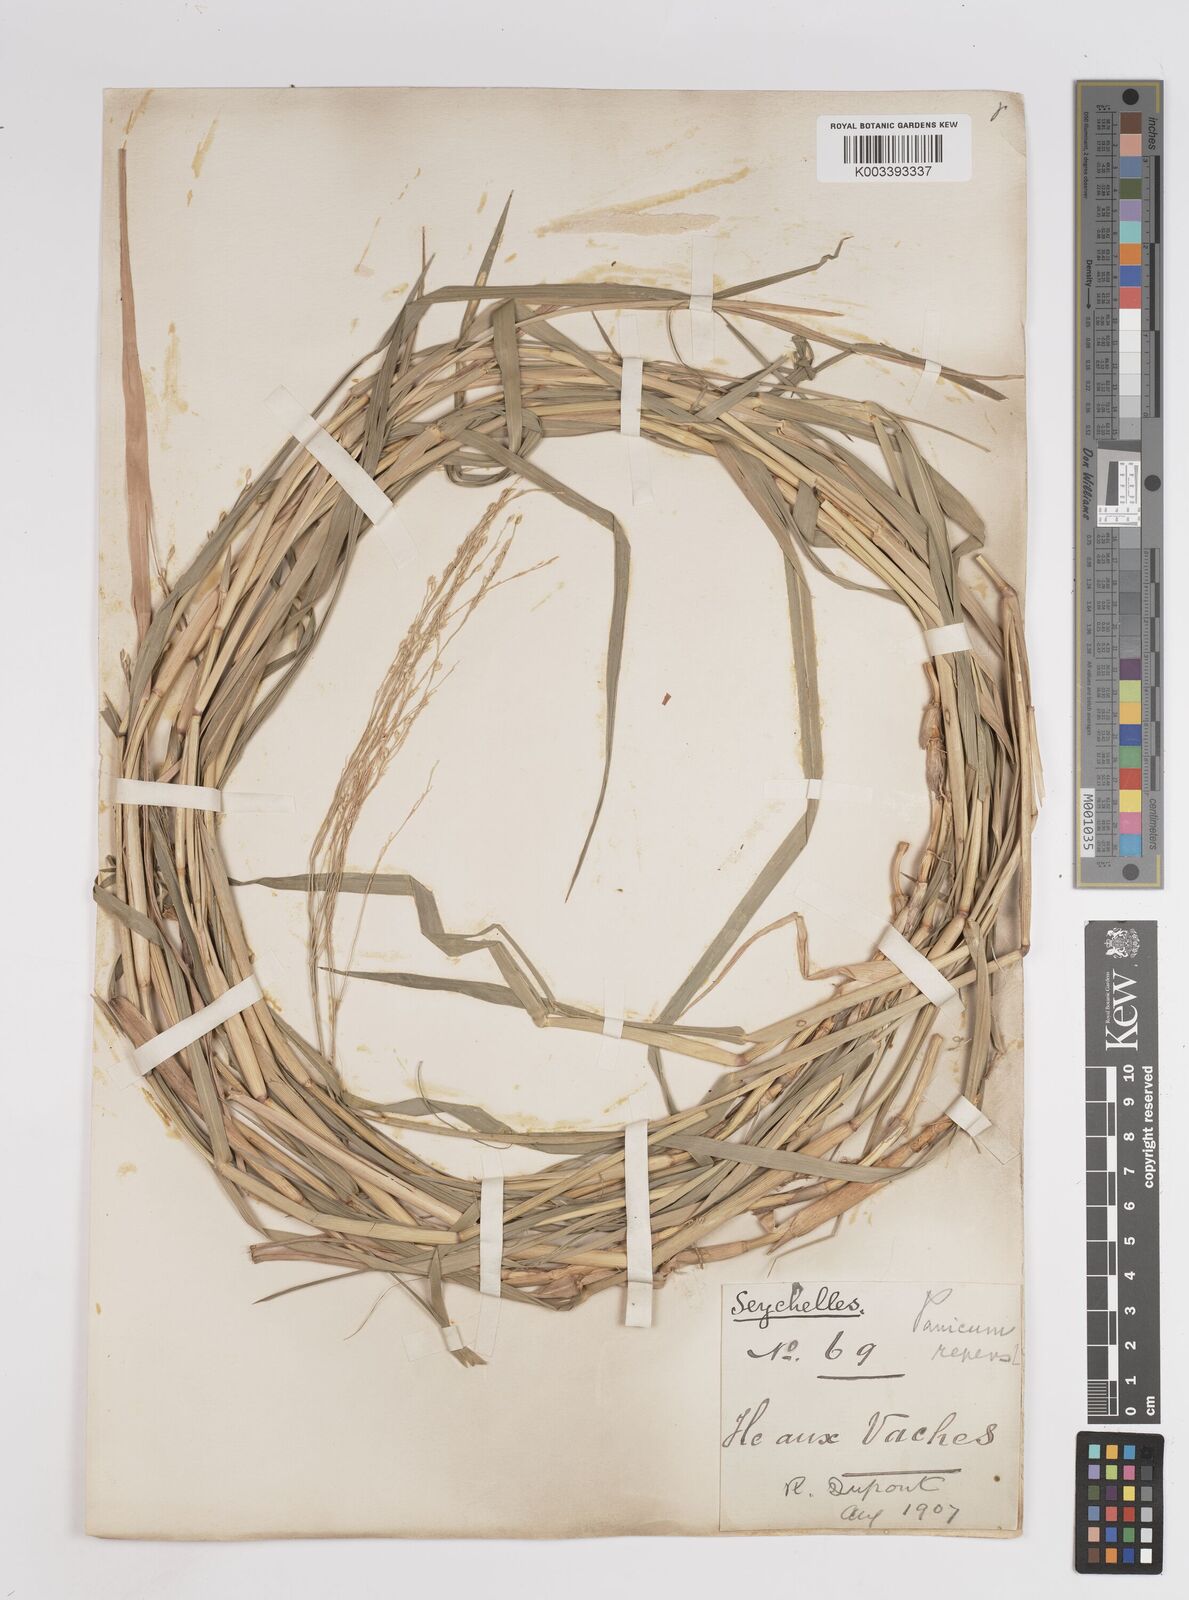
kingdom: Plantae
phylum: Tracheophyta
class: Liliopsida
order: Poales
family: Poaceae
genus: Panicum
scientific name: Panicum repens
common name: Torpedo grass
